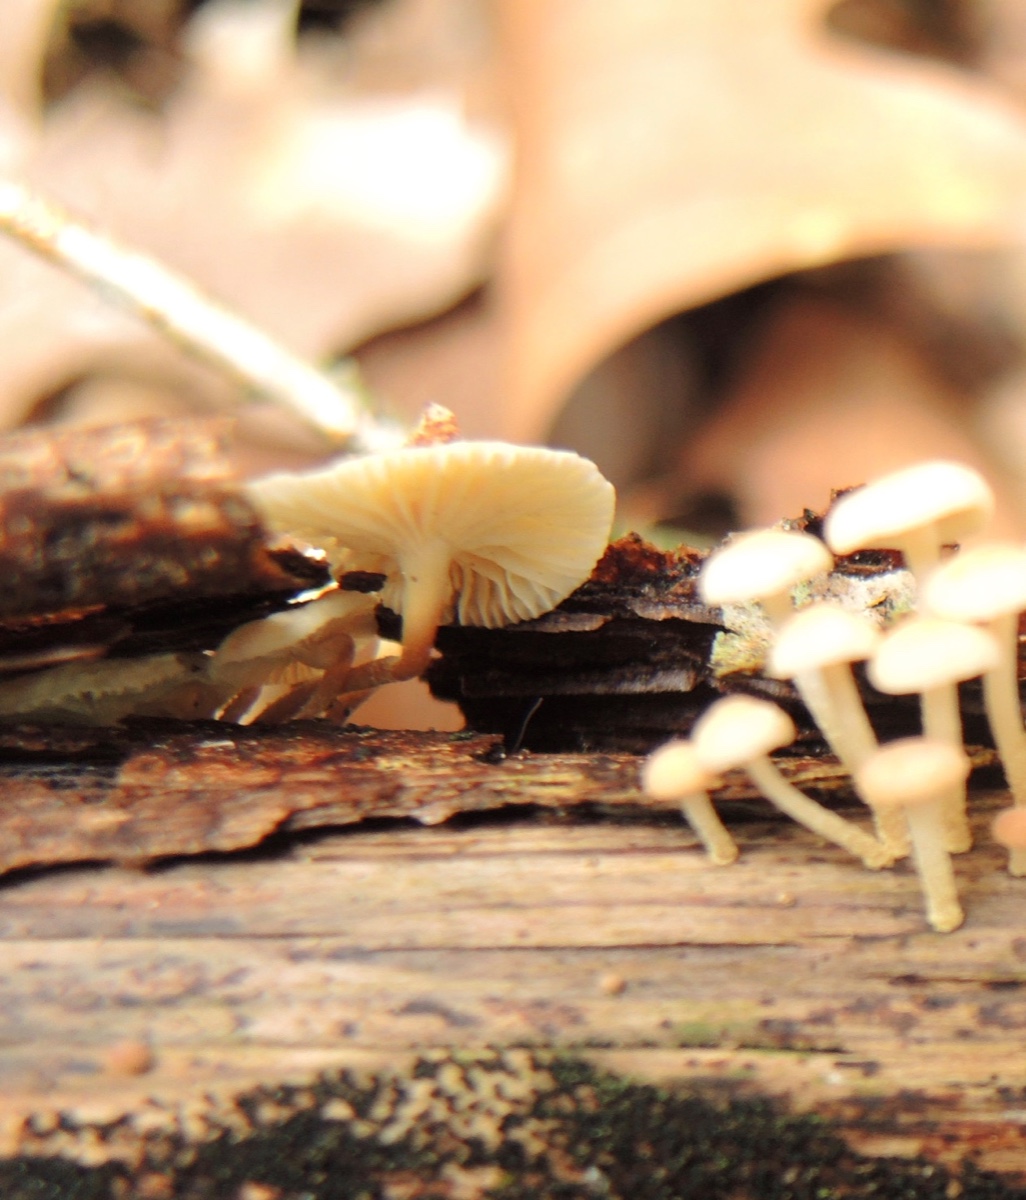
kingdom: Fungi
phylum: Basidiomycota
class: Agaricomycetes
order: Agaricales
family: Omphalotaceae
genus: Collybiopsis
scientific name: Collybiopsis ramealis
